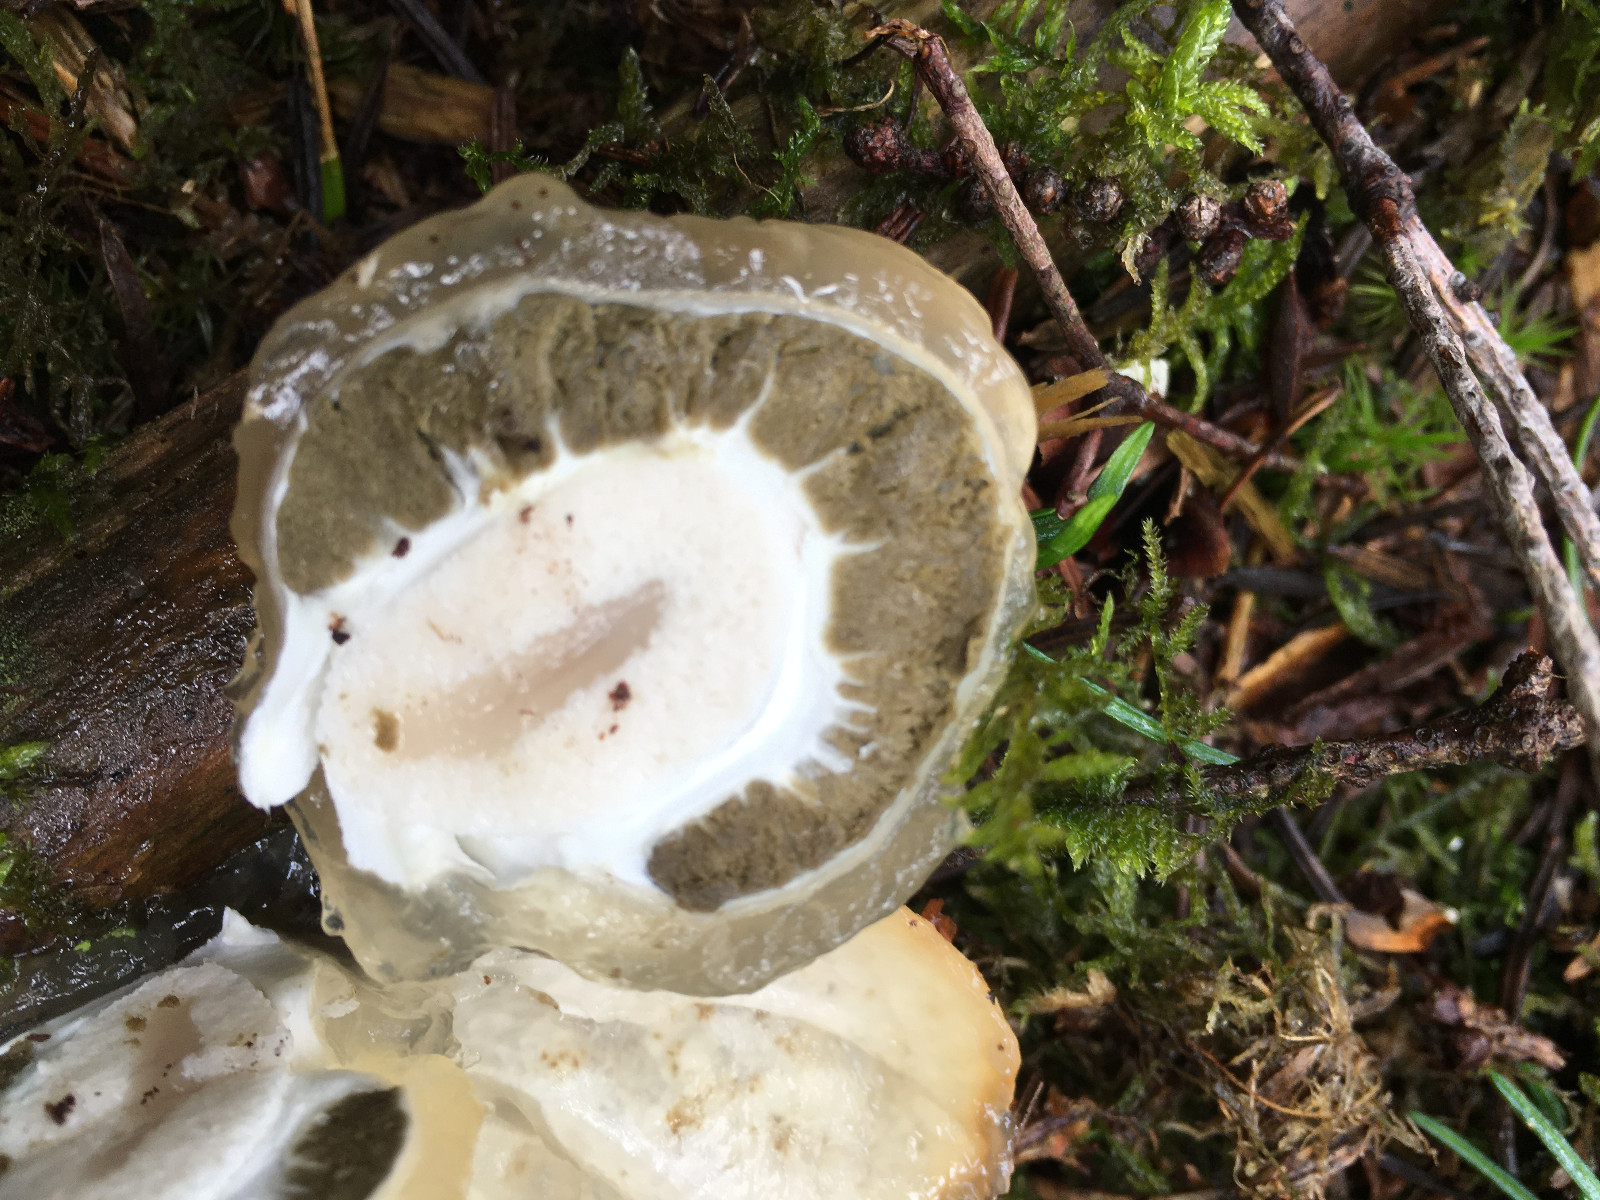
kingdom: Fungi
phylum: Basidiomycota
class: Agaricomycetes
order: Phallales
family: Phallaceae
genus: Phallus
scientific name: Phallus impudicus
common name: almindelig stinksvamp
